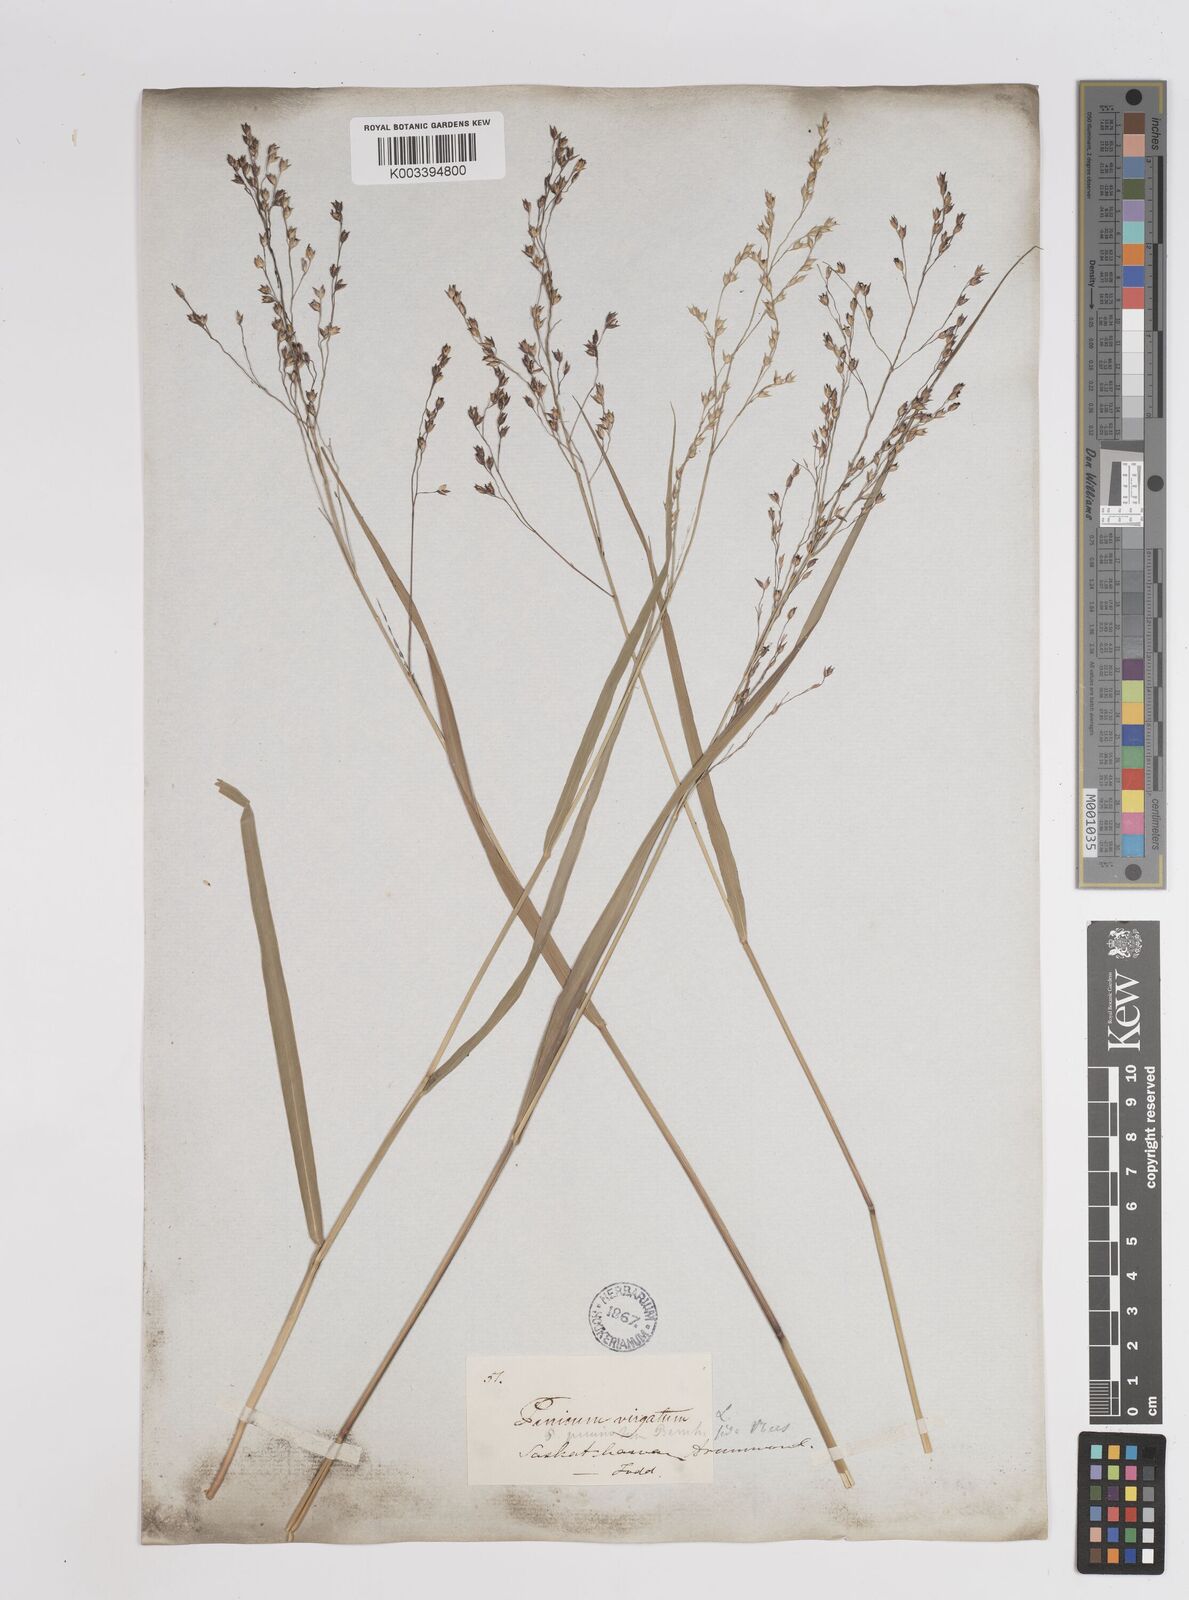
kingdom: Plantae
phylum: Tracheophyta
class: Liliopsida
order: Poales
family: Poaceae
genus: Panicum
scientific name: Panicum virgatum
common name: Switchgrass
